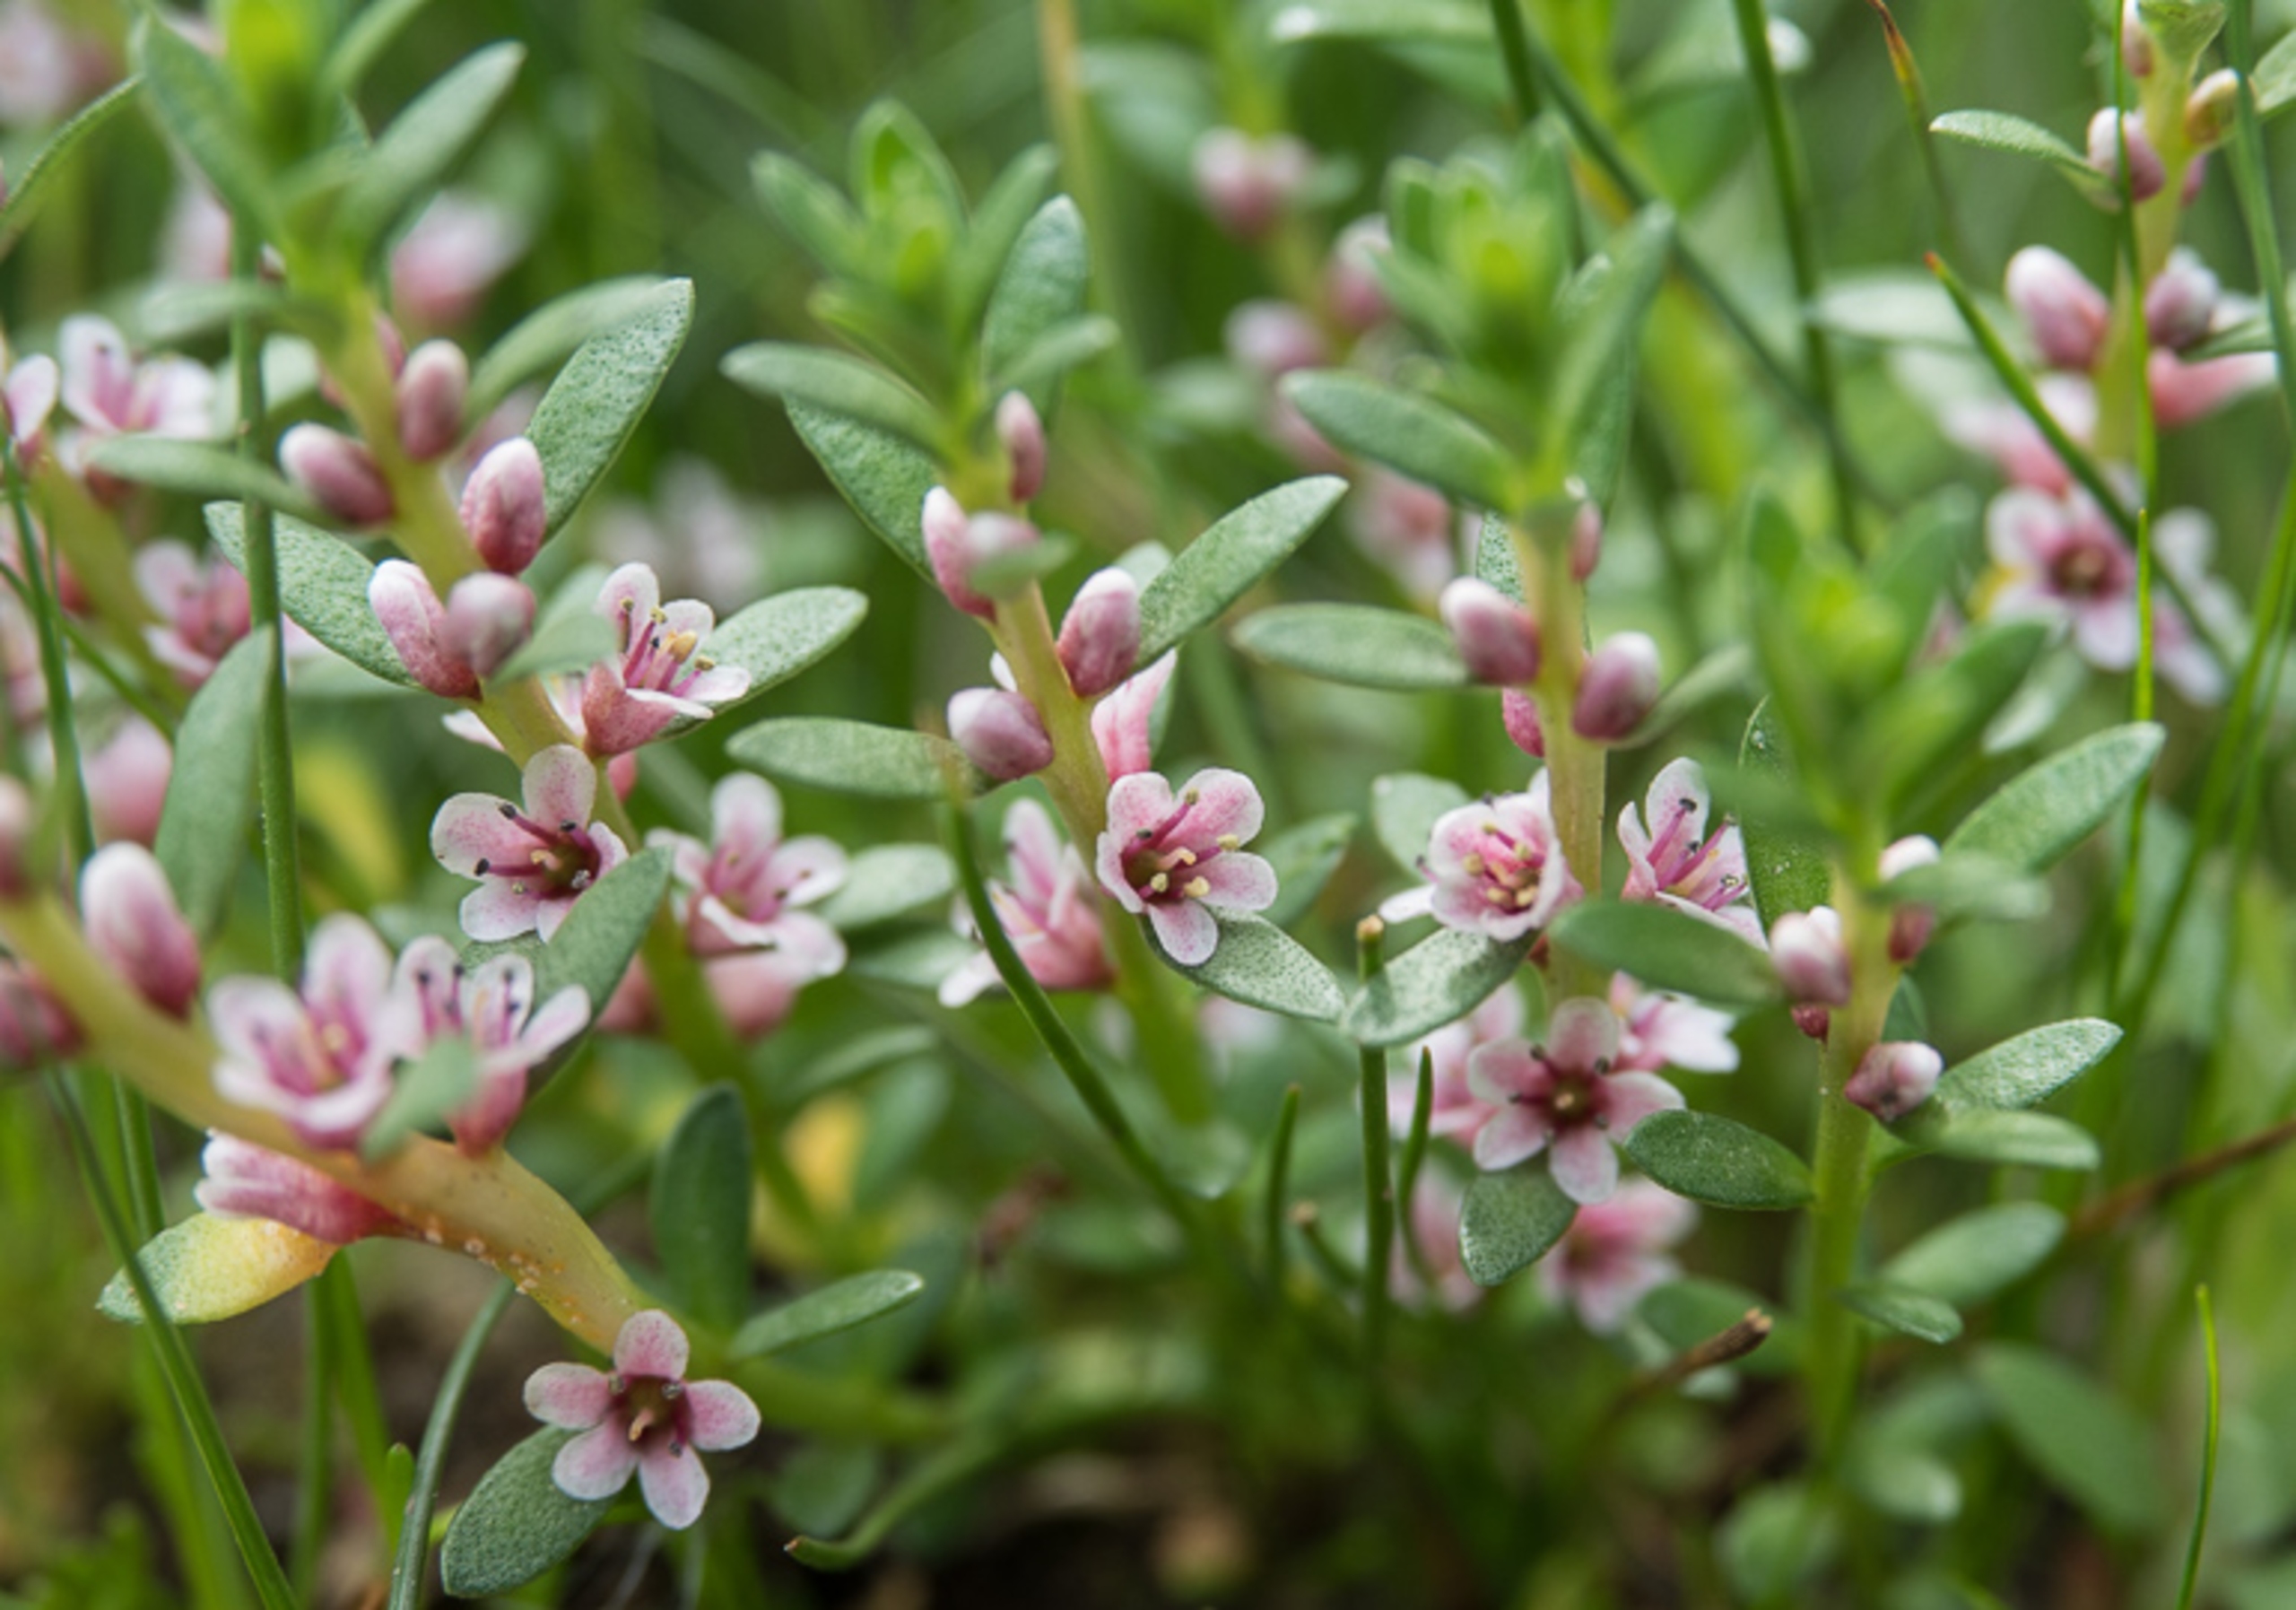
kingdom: Plantae
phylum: Tracheophyta
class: Magnoliopsida
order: Ericales
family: Primulaceae
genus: Lysimachia
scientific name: Lysimachia maritima
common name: Sandkryb
